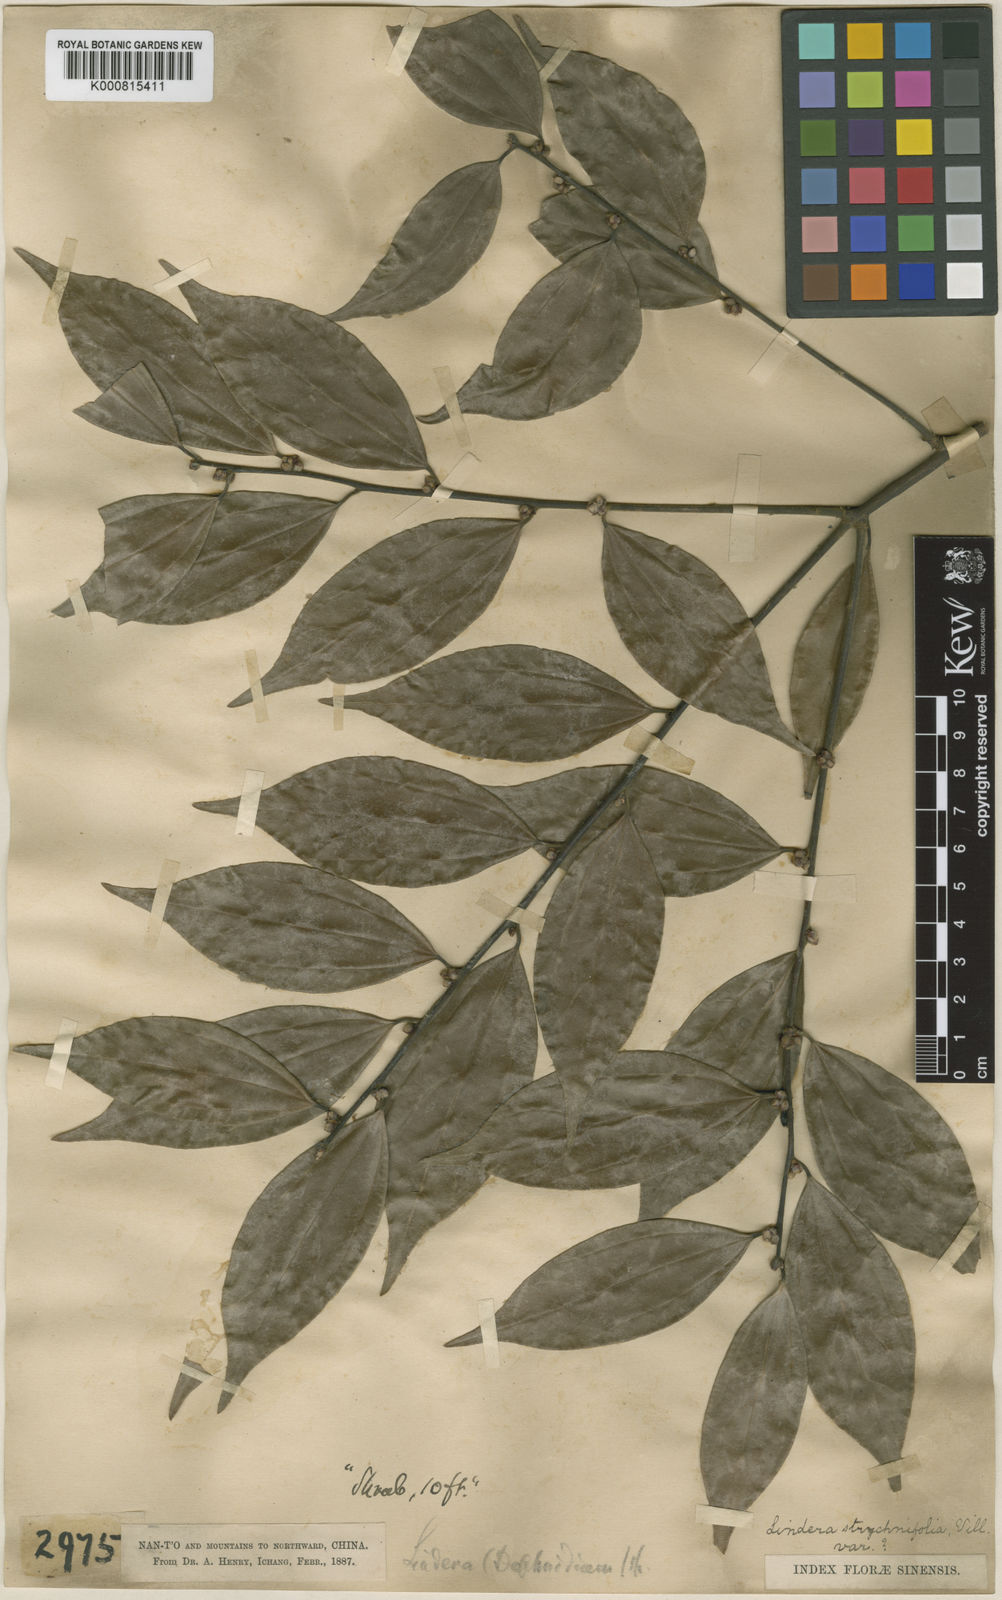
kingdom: Plantae
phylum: Tracheophyta
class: Magnoliopsida
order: Laurales
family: Lauraceae
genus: Lindera
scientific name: Lindera aggregata
